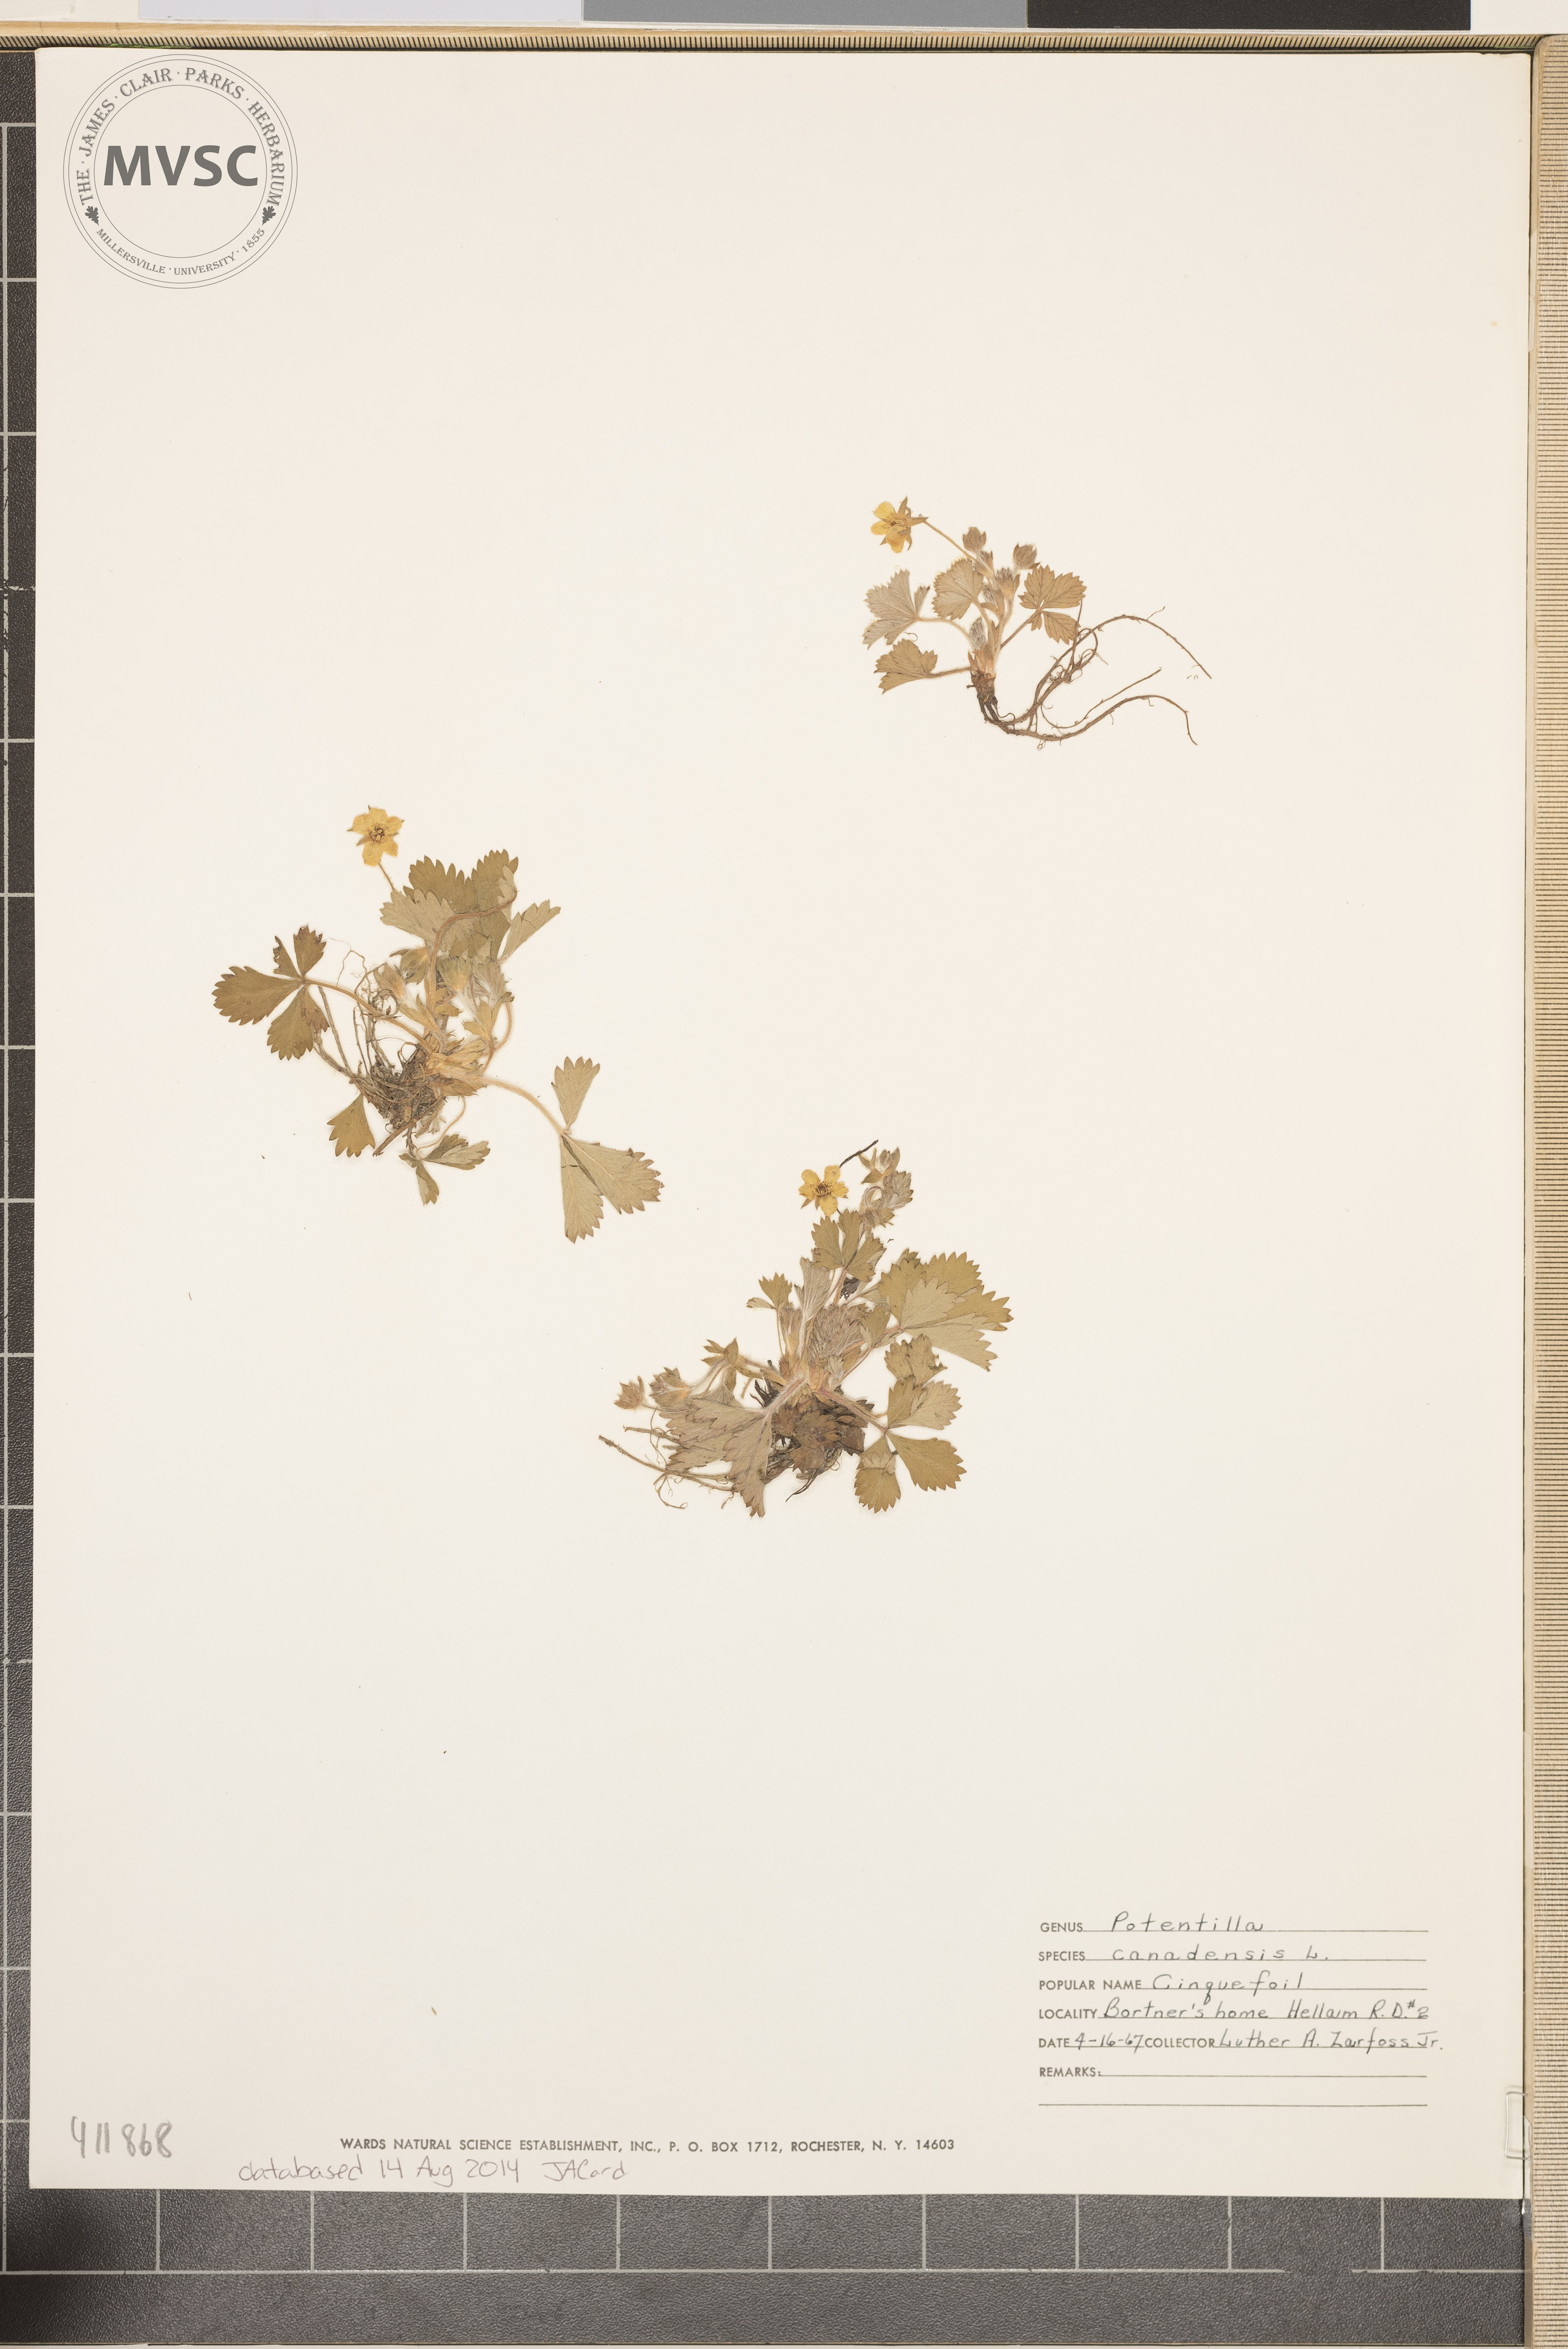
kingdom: Plantae
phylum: Tracheophyta
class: Magnoliopsida
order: Rosales
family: Rosaceae
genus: Potentilla
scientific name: Potentilla canadensis
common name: Canada cinquefoil
